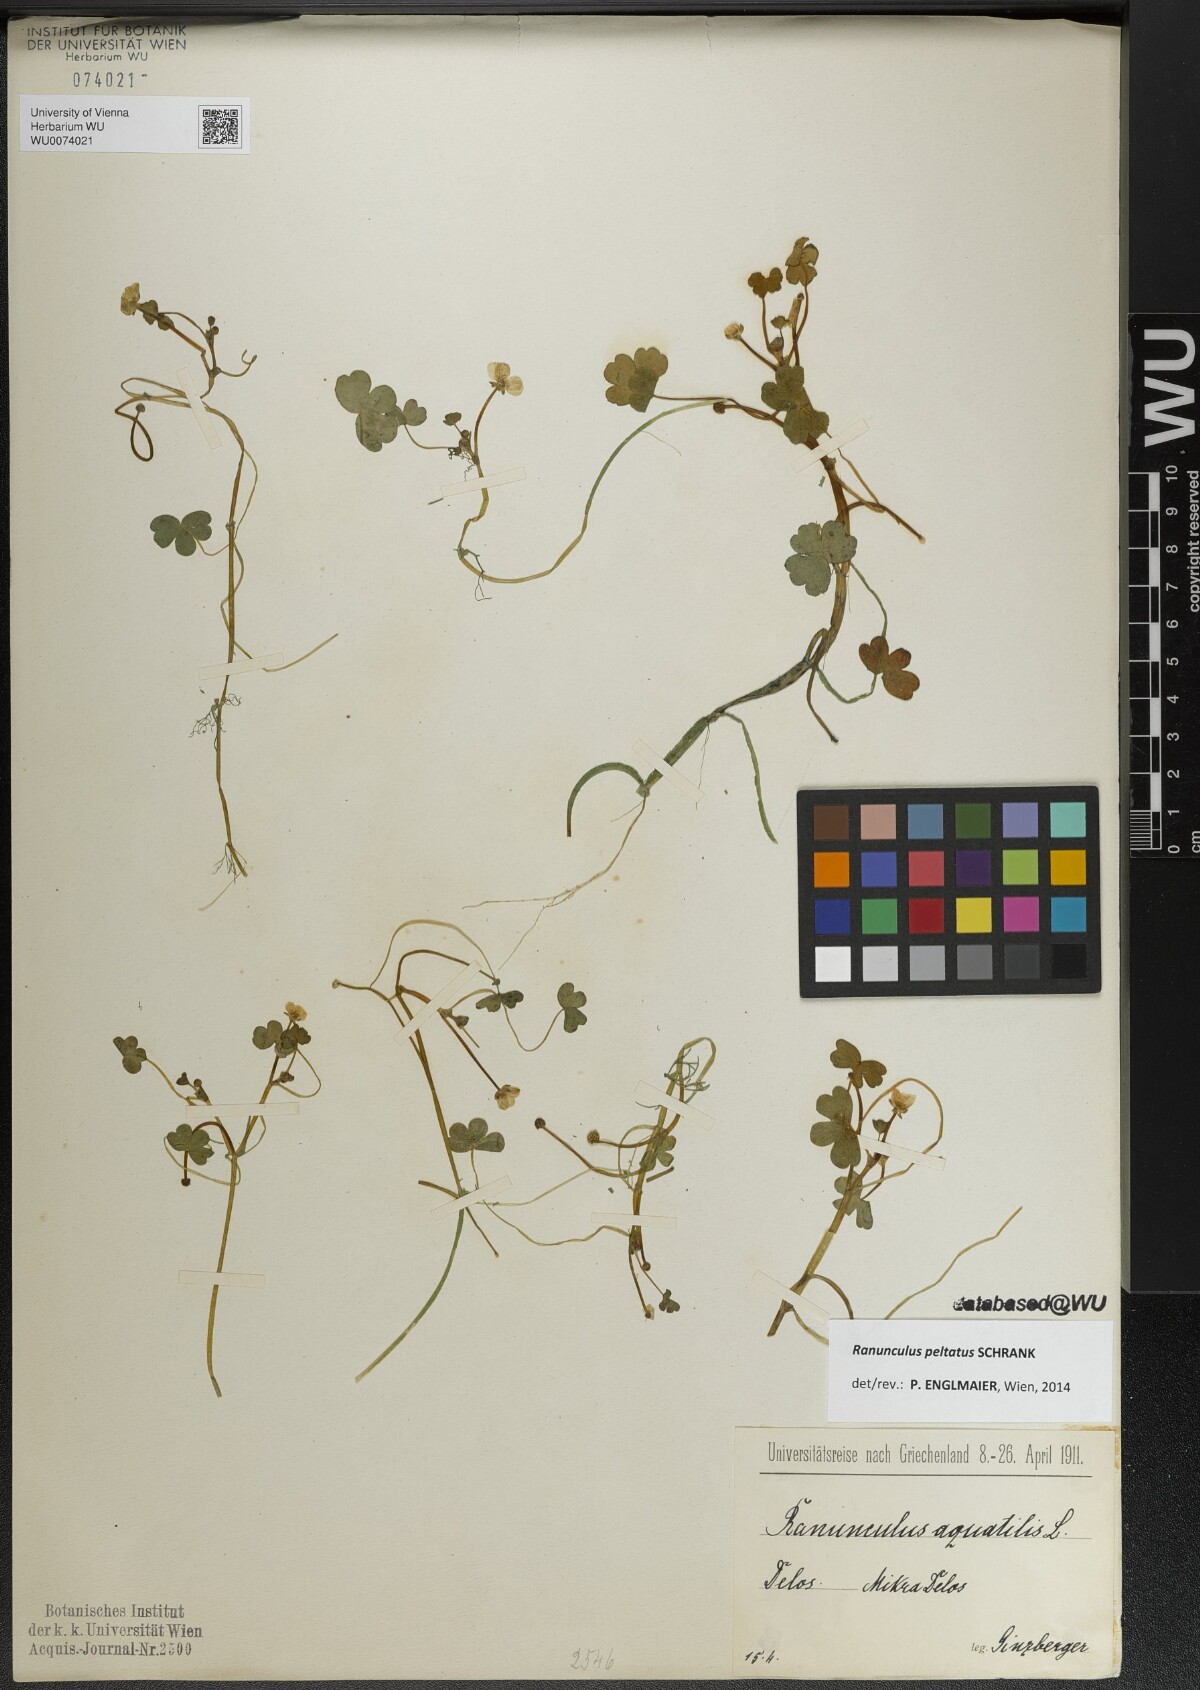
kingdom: Plantae
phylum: Tracheophyta
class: Magnoliopsida
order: Ranunculales
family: Ranunculaceae
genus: Ranunculus
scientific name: Ranunculus peltatus
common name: Pond water-crowfoot
